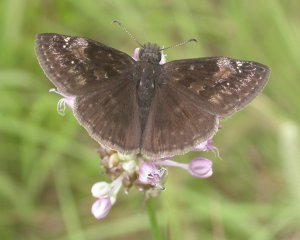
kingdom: Animalia
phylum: Arthropoda
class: Insecta
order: Lepidoptera
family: Hesperiidae
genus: Gesta
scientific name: Gesta
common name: Wild Indigo Duskywing
